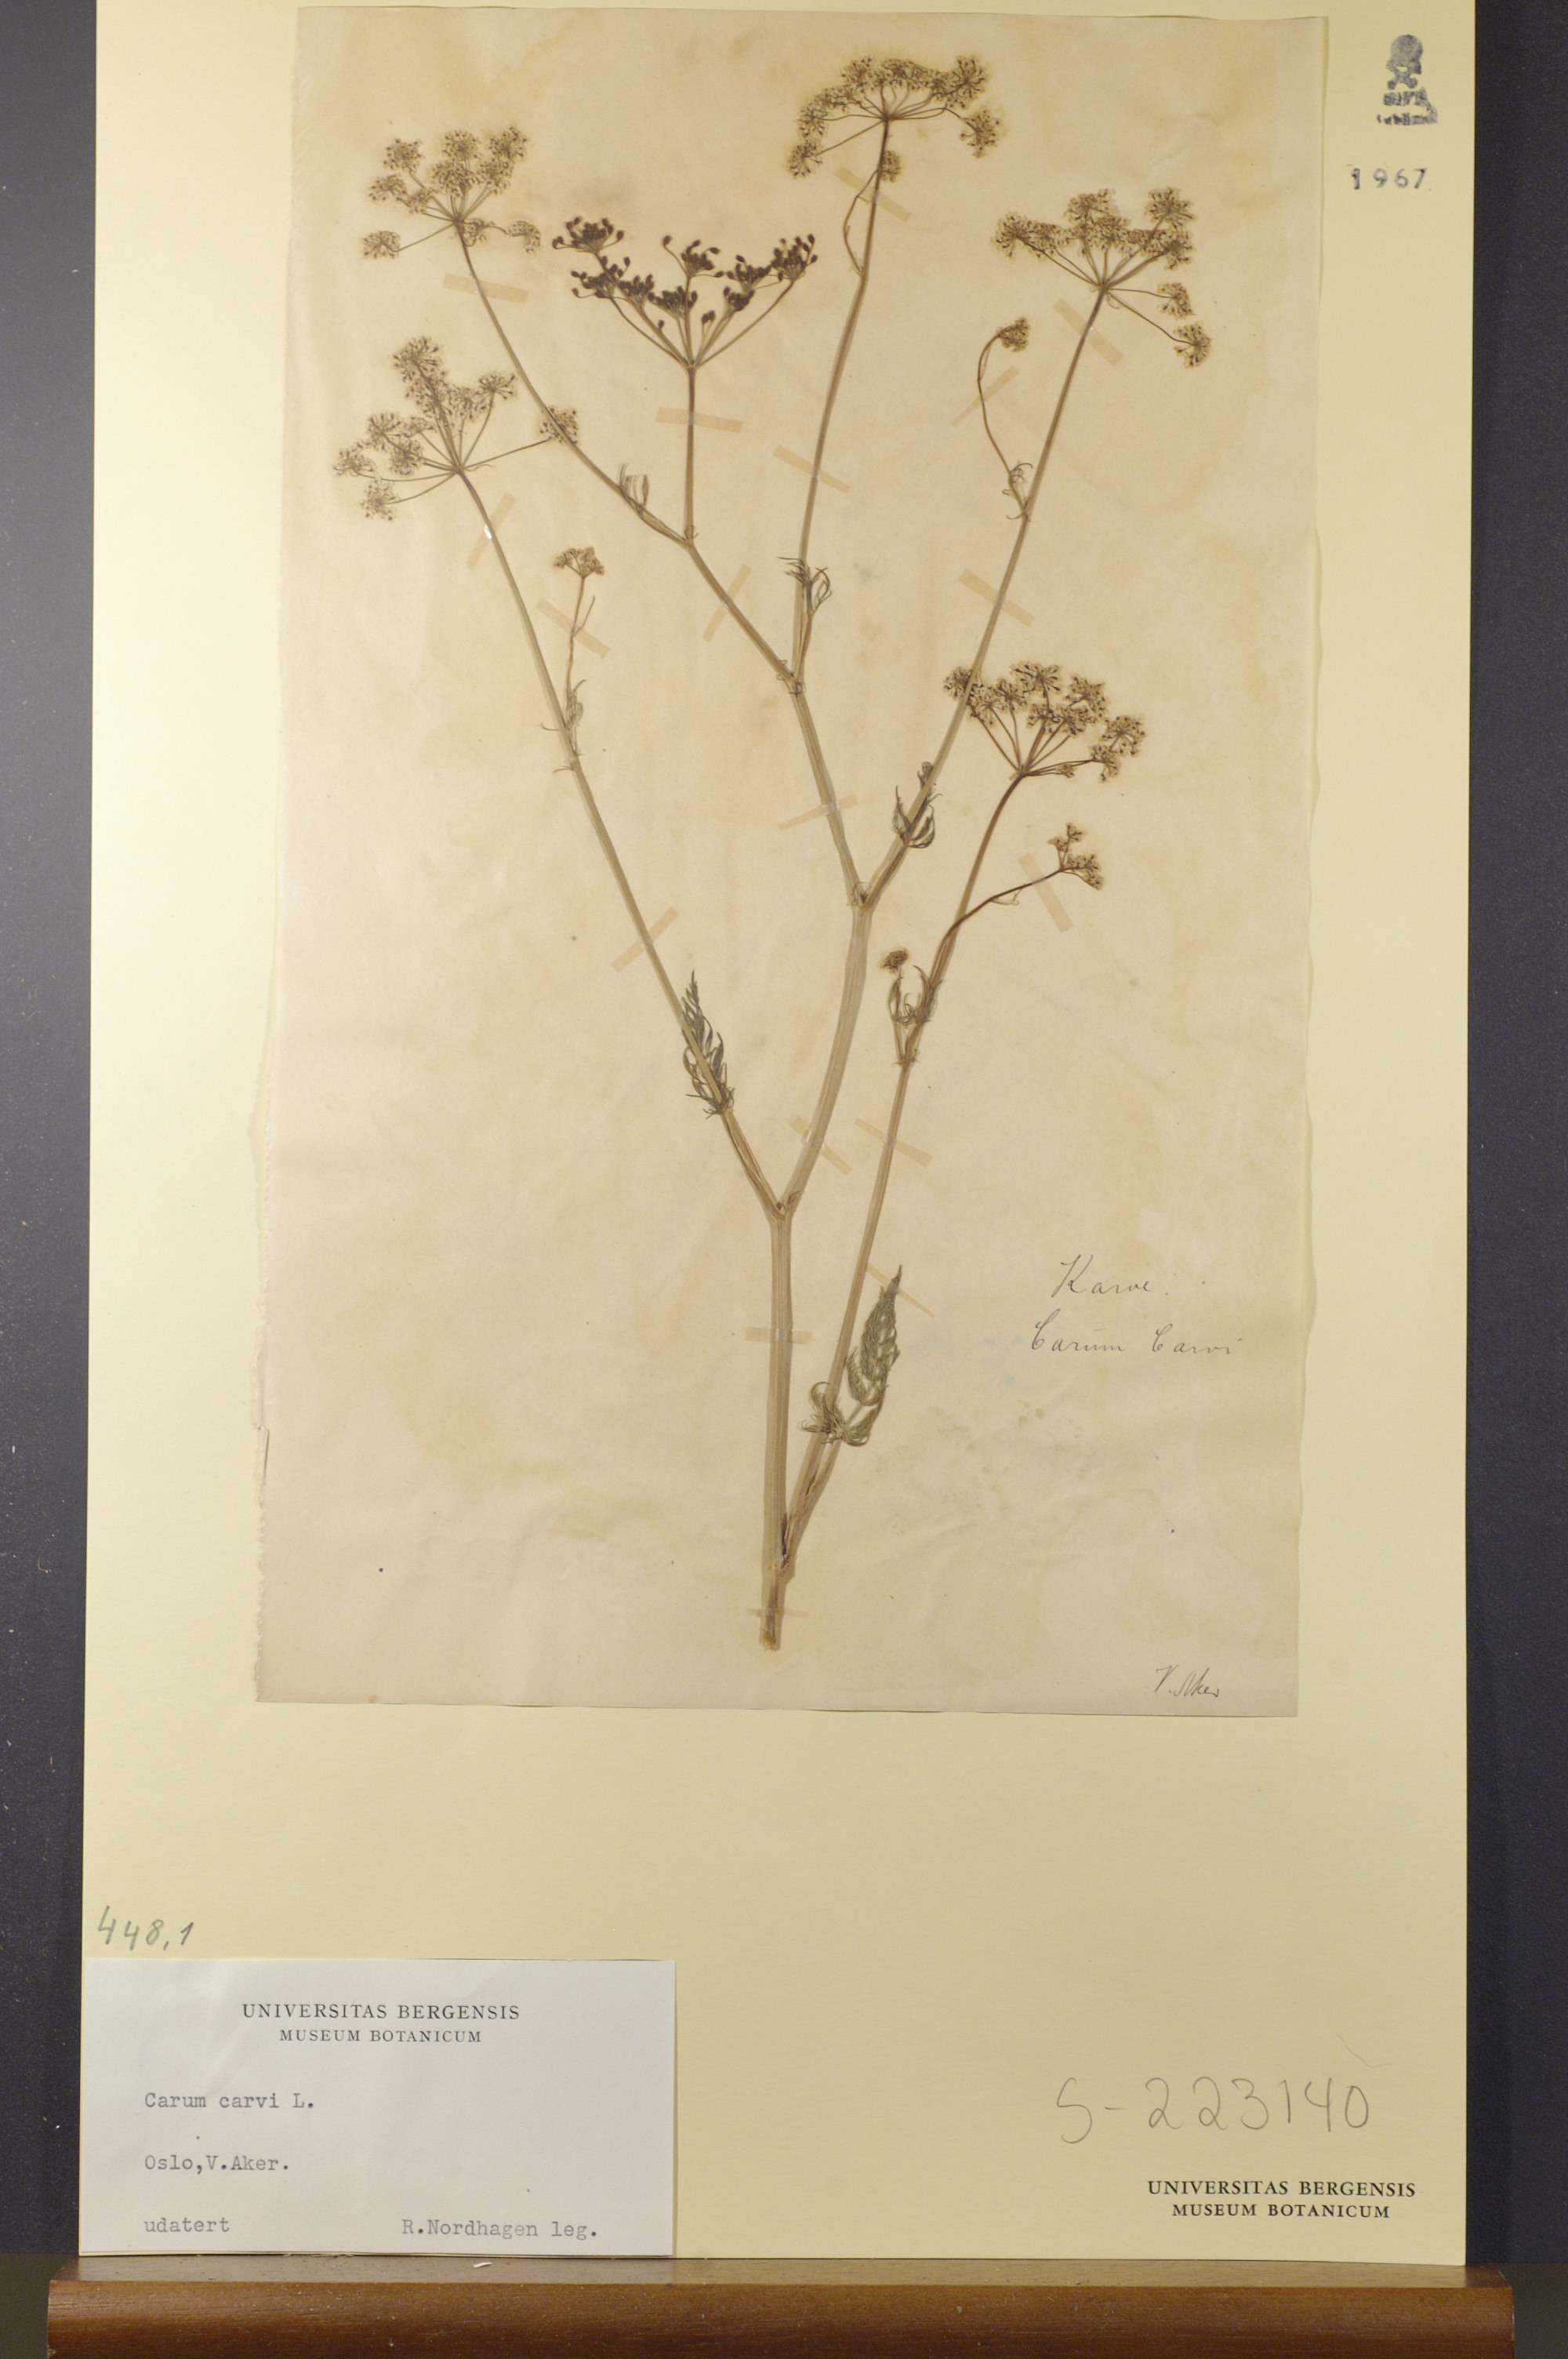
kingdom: Plantae
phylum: Tracheophyta
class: Magnoliopsida
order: Apiales
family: Apiaceae
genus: Carum
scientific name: Carum carvi
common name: Caraway
